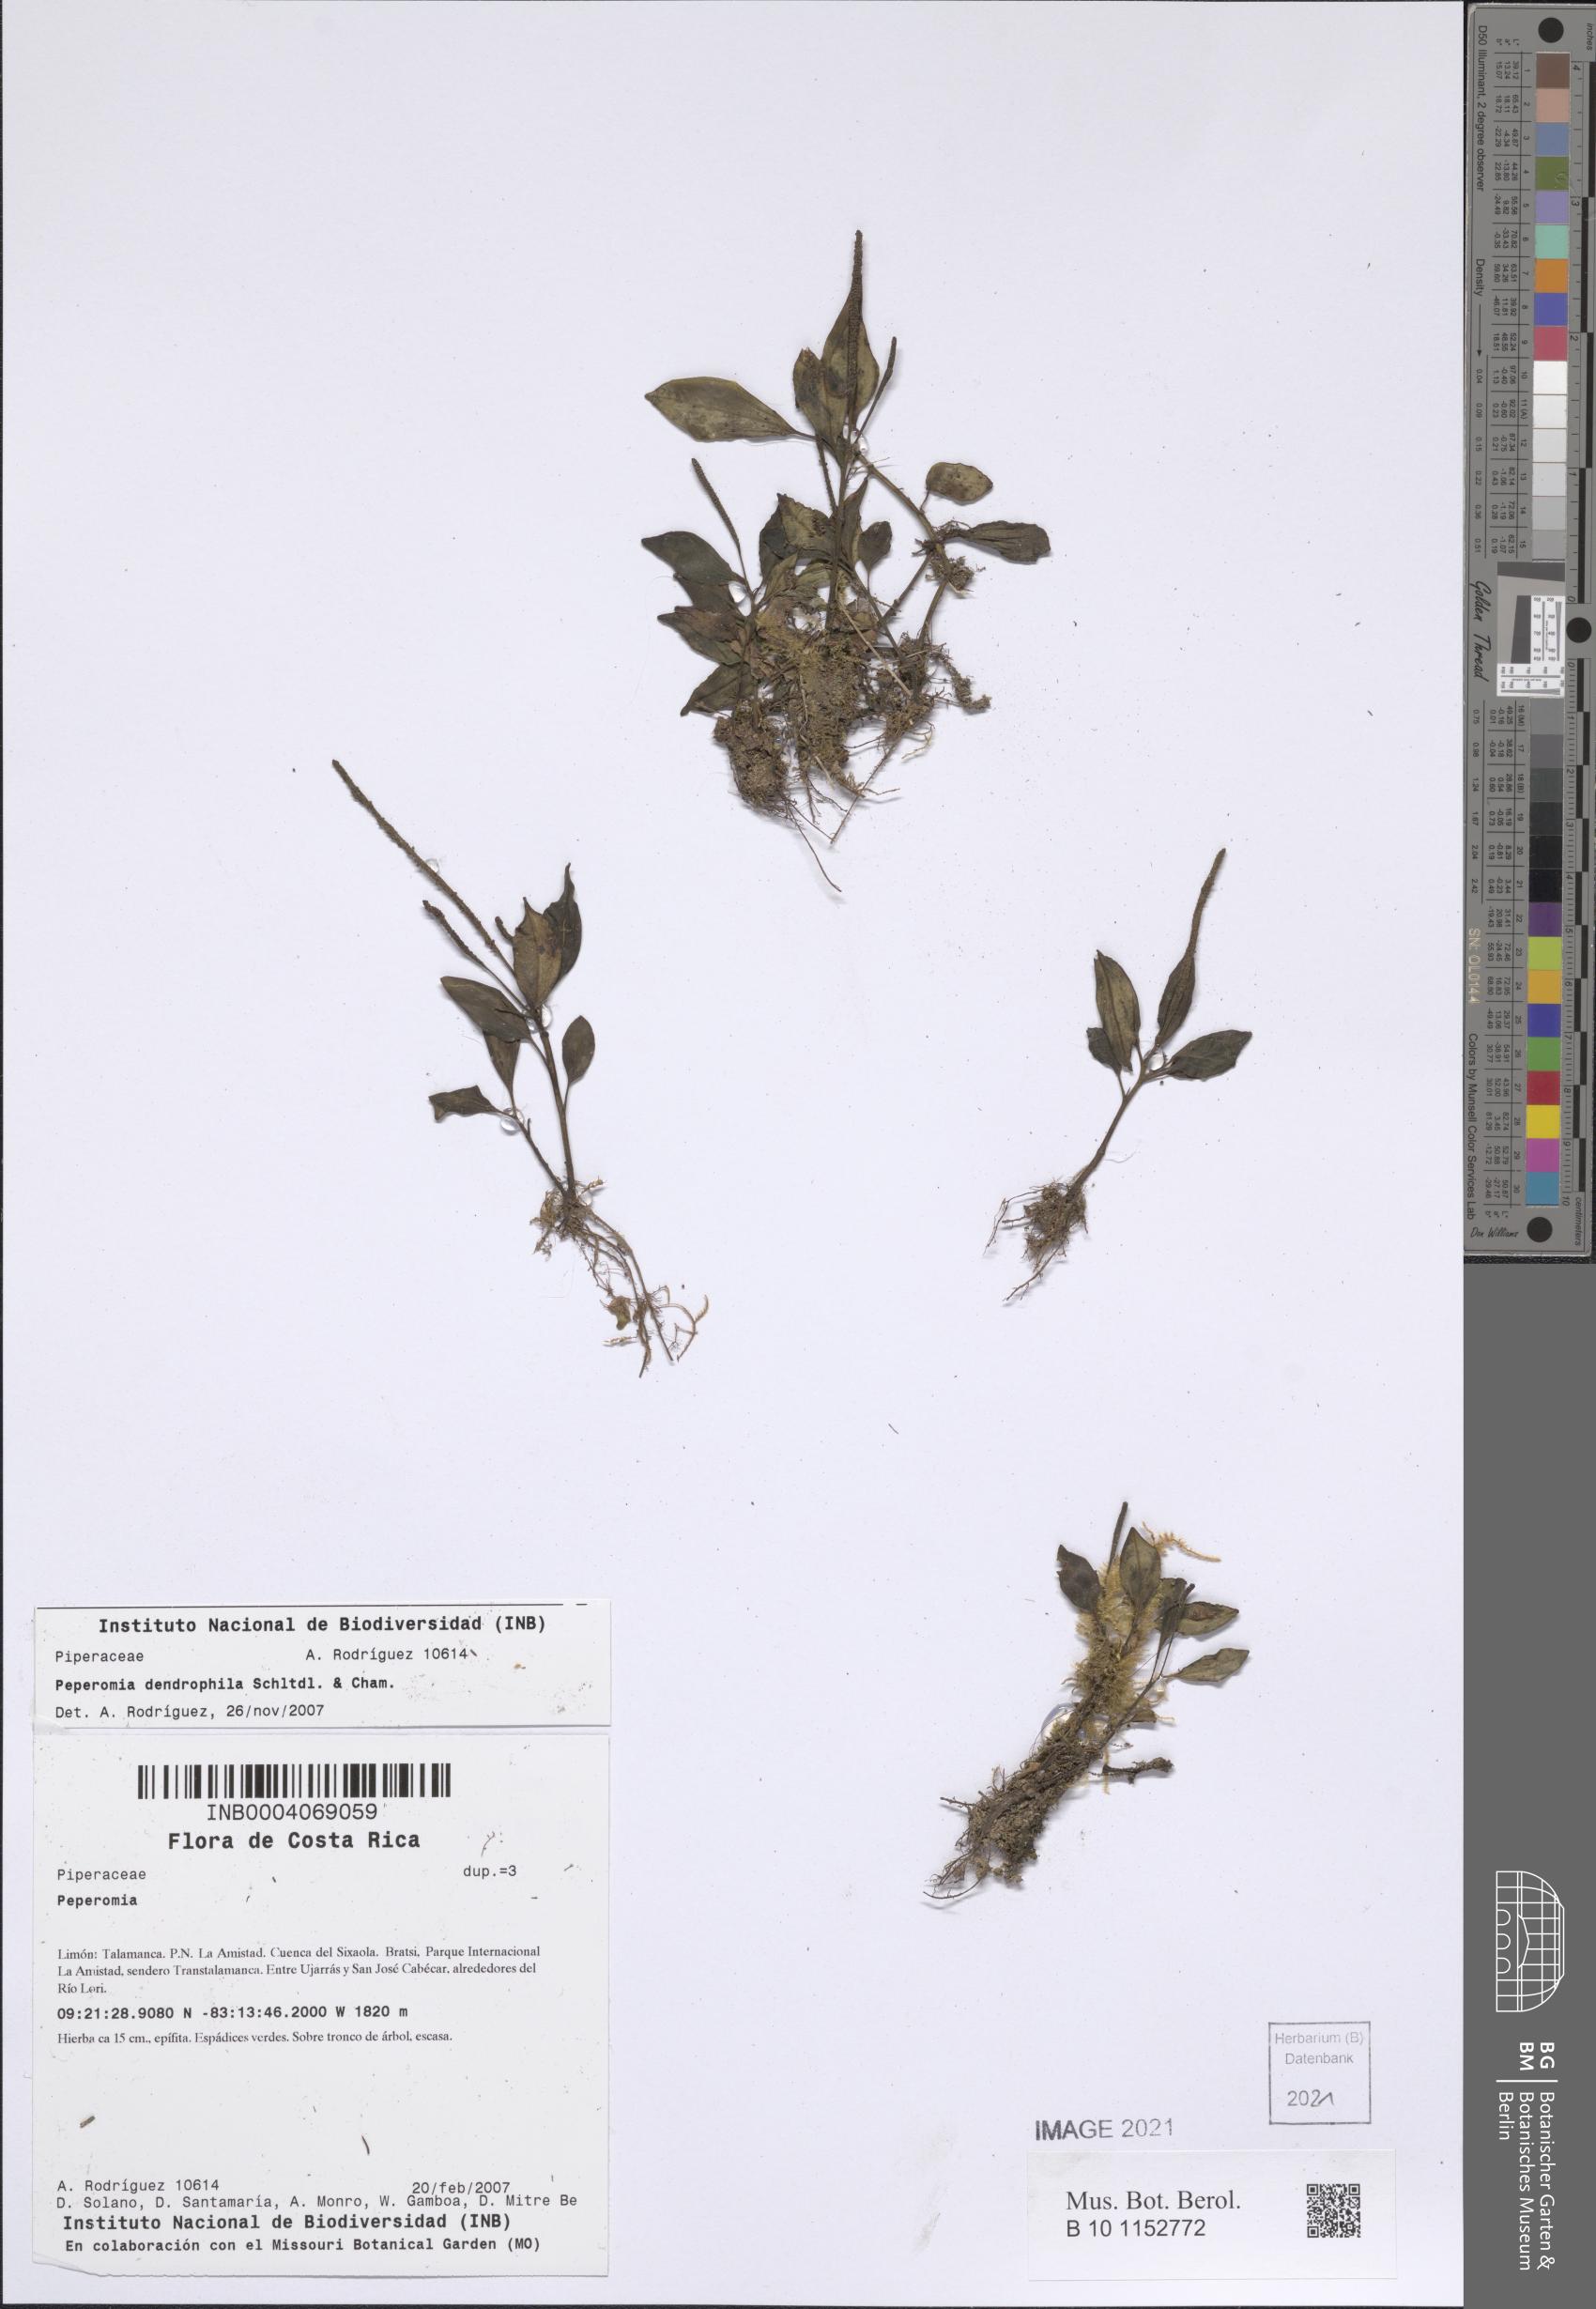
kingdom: Plantae
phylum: Tracheophyta
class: Magnoliopsida
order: Piperales
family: Piperaceae
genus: Peperomia
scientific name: Peperomia dendrophila
